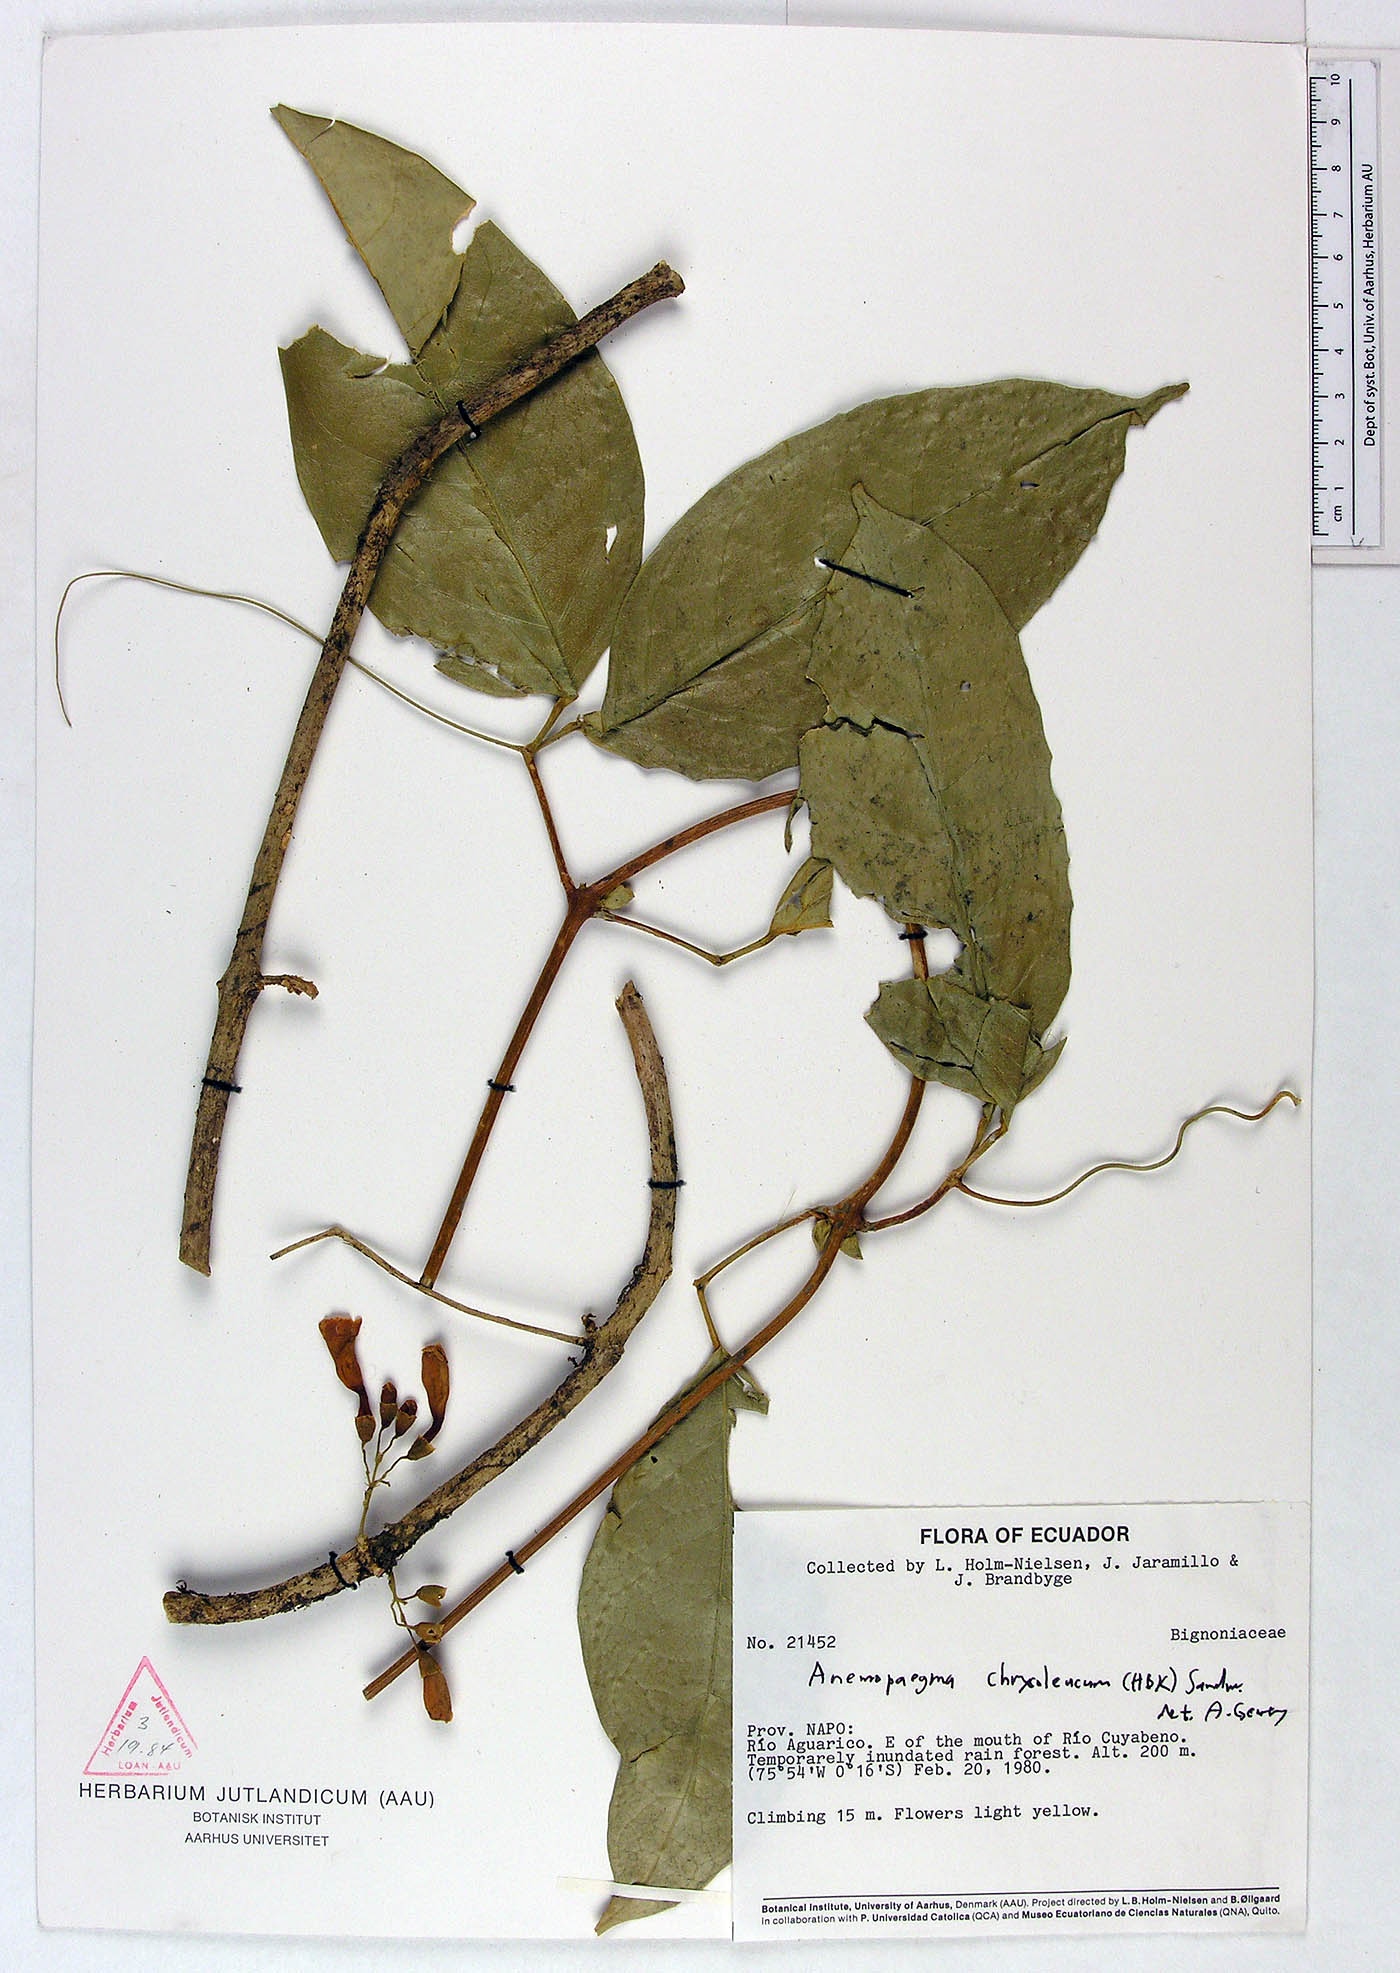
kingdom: Plantae
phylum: Tracheophyta
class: Magnoliopsida
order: Lamiales
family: Bignoniaceae
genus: Anemopaegma
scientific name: Anemopaegma chrysoleucum
